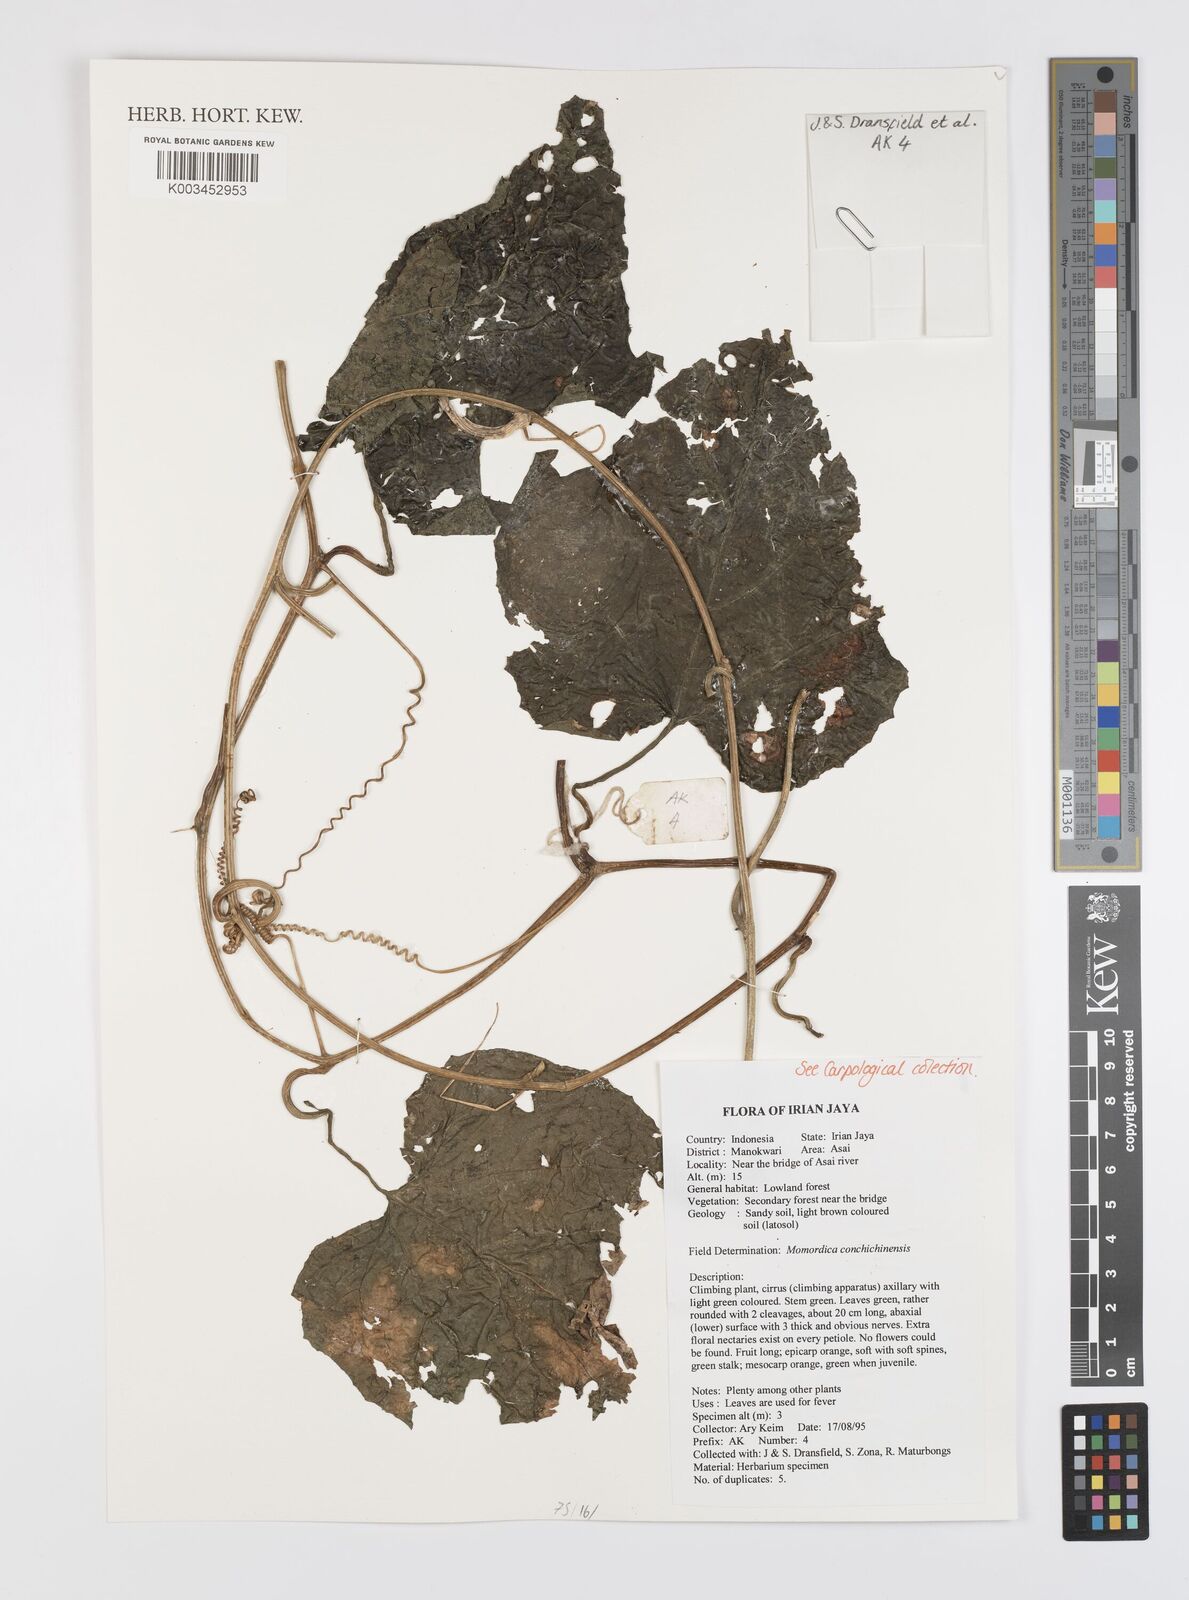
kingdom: Plantae
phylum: Tracheophyta
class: Magnoliopsida
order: Cucurbitales
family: Cucurbitaceae
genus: Momordica
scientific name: Momordica cochinchinensis
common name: Chinese bitter-cucumber
